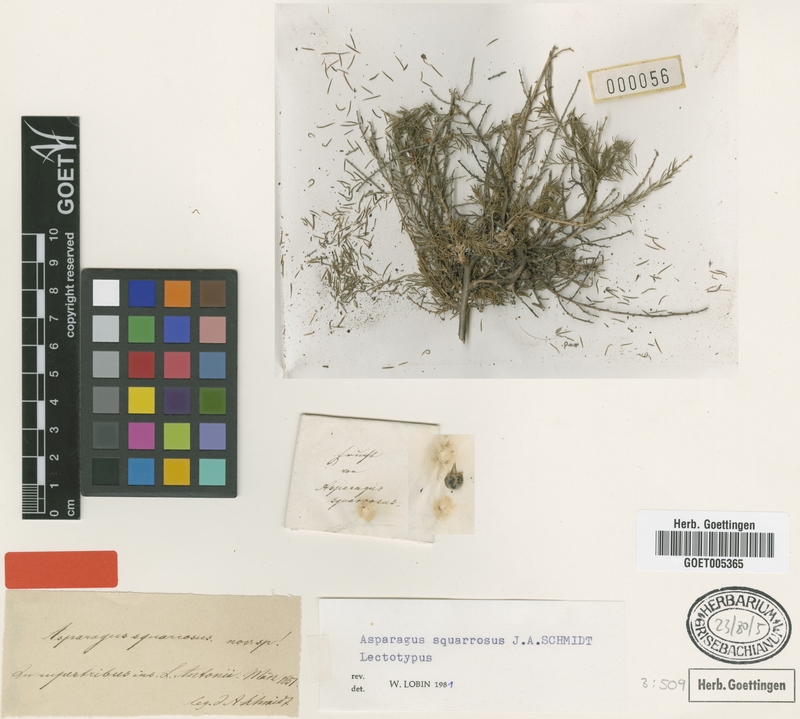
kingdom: Plantae
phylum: Tracheophyta
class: Liliopsida
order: Asparagales
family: Asparagaceae
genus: Asparagus
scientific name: Asparagus squarrosus
